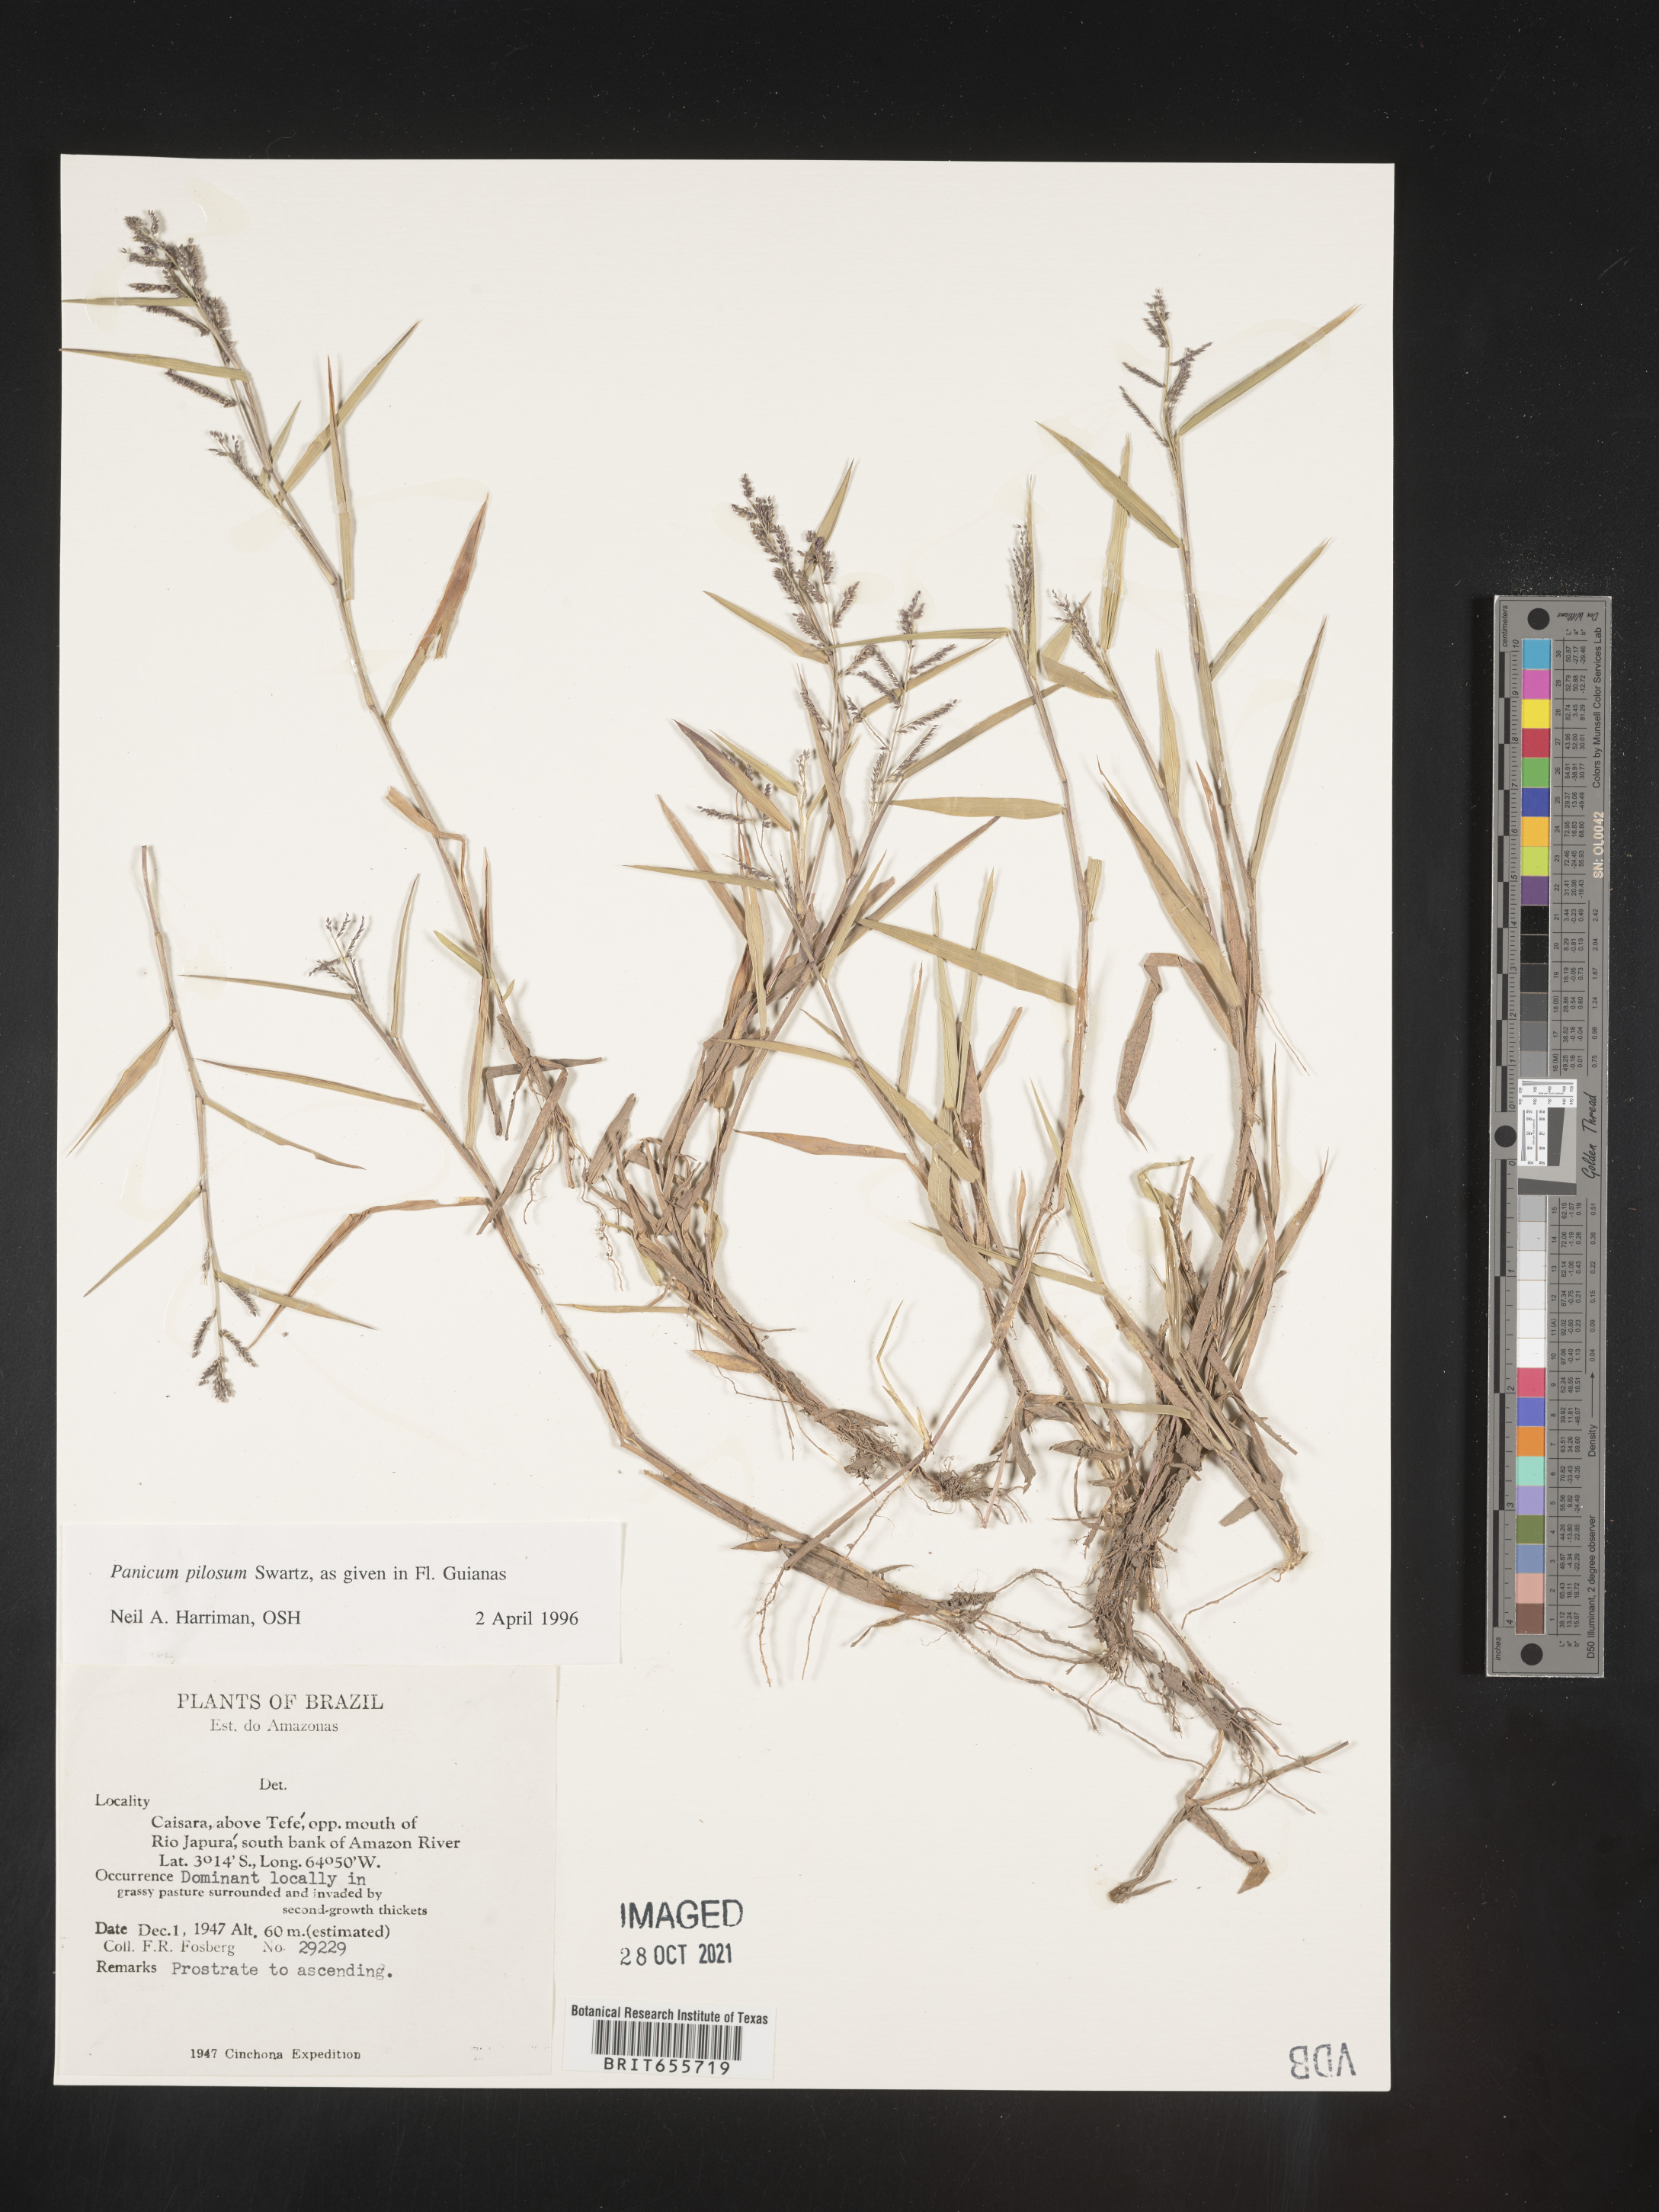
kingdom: Plantae
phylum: Tracheophyta
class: Liliopsida
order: Poales
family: Poaceae
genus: Panicum
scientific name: Panicum
